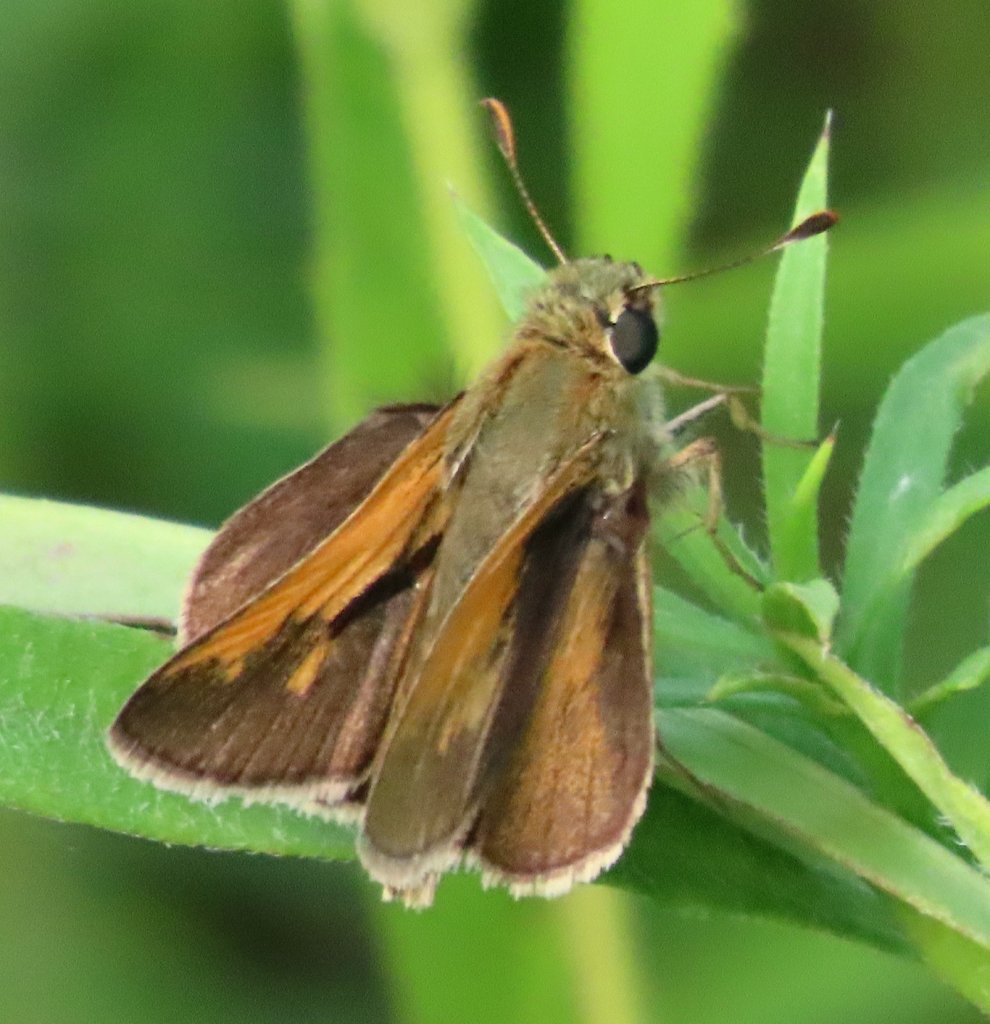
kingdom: Animalia
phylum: Arthropoda
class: Insecta
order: Lepidoptera
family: Hesperiidae
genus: Polites
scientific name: Polites themistocles
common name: Tawny-edged Skipper
